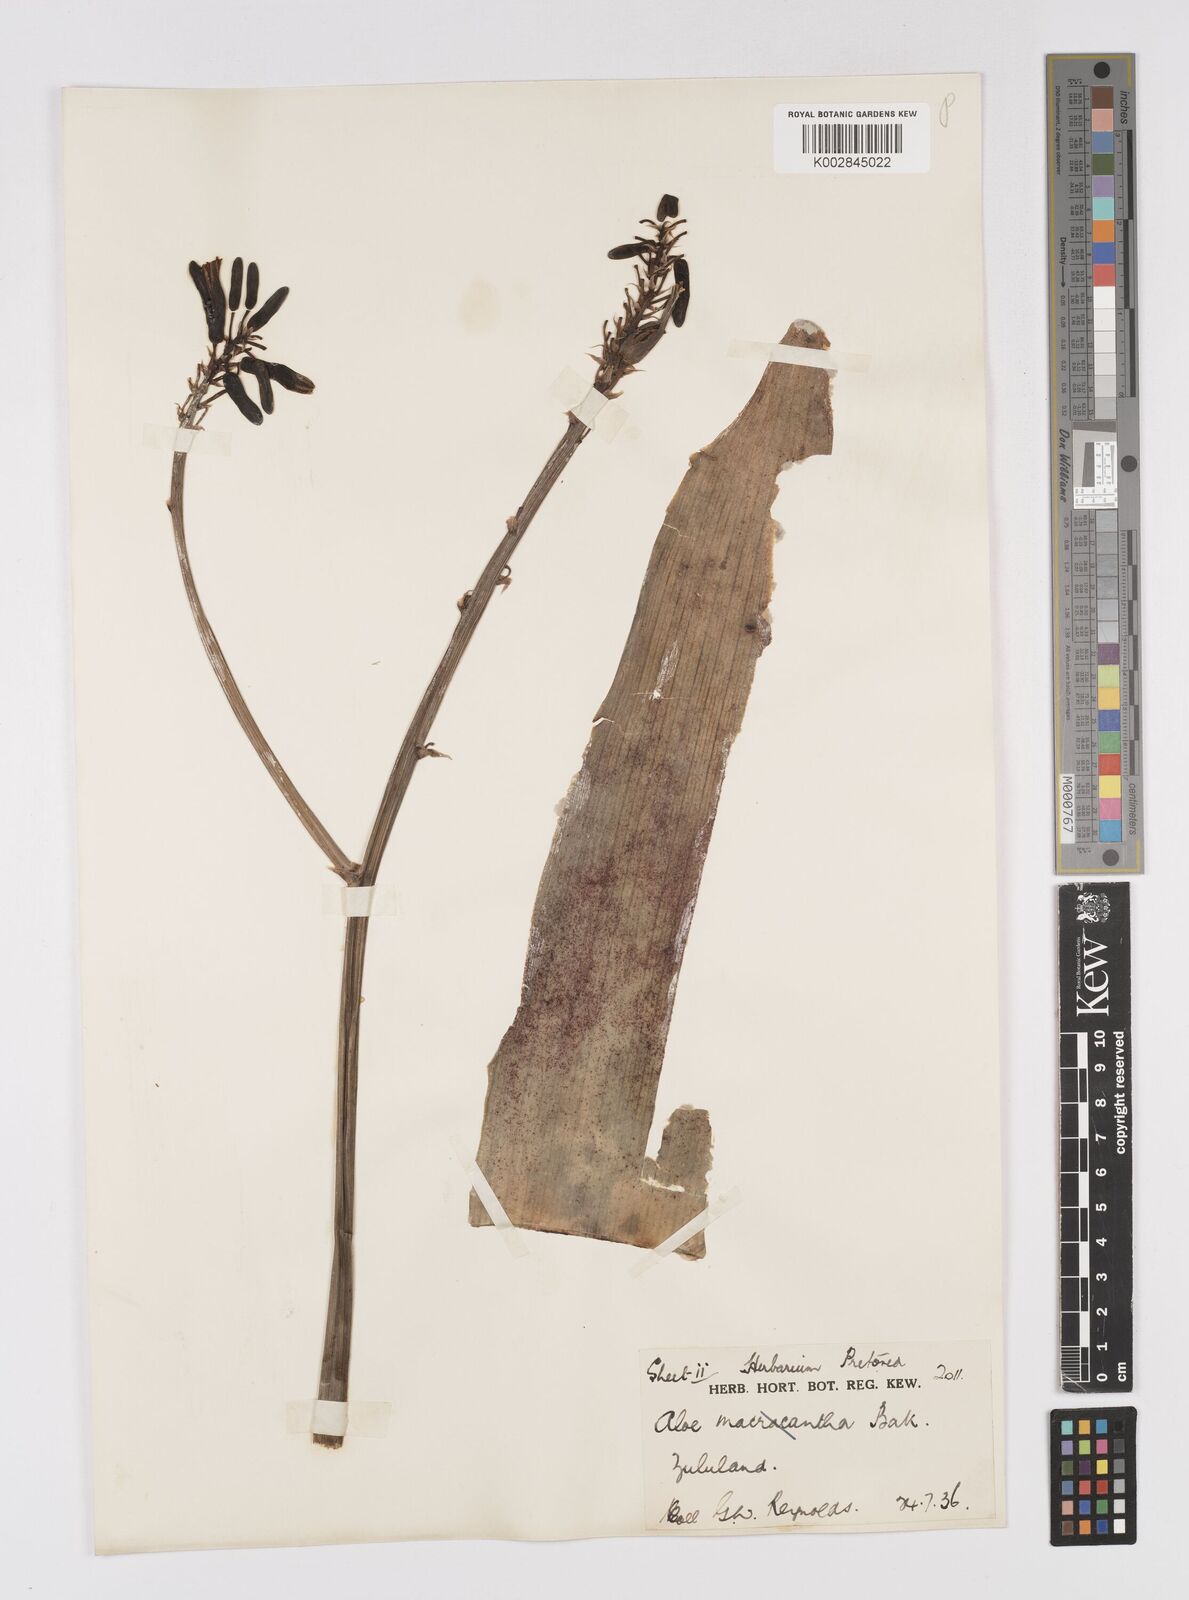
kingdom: Plantae
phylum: Tracheophyta
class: Liliopsida
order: Asparagales
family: Asphodelaceae
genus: Aloe
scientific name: Aloe microstigma
